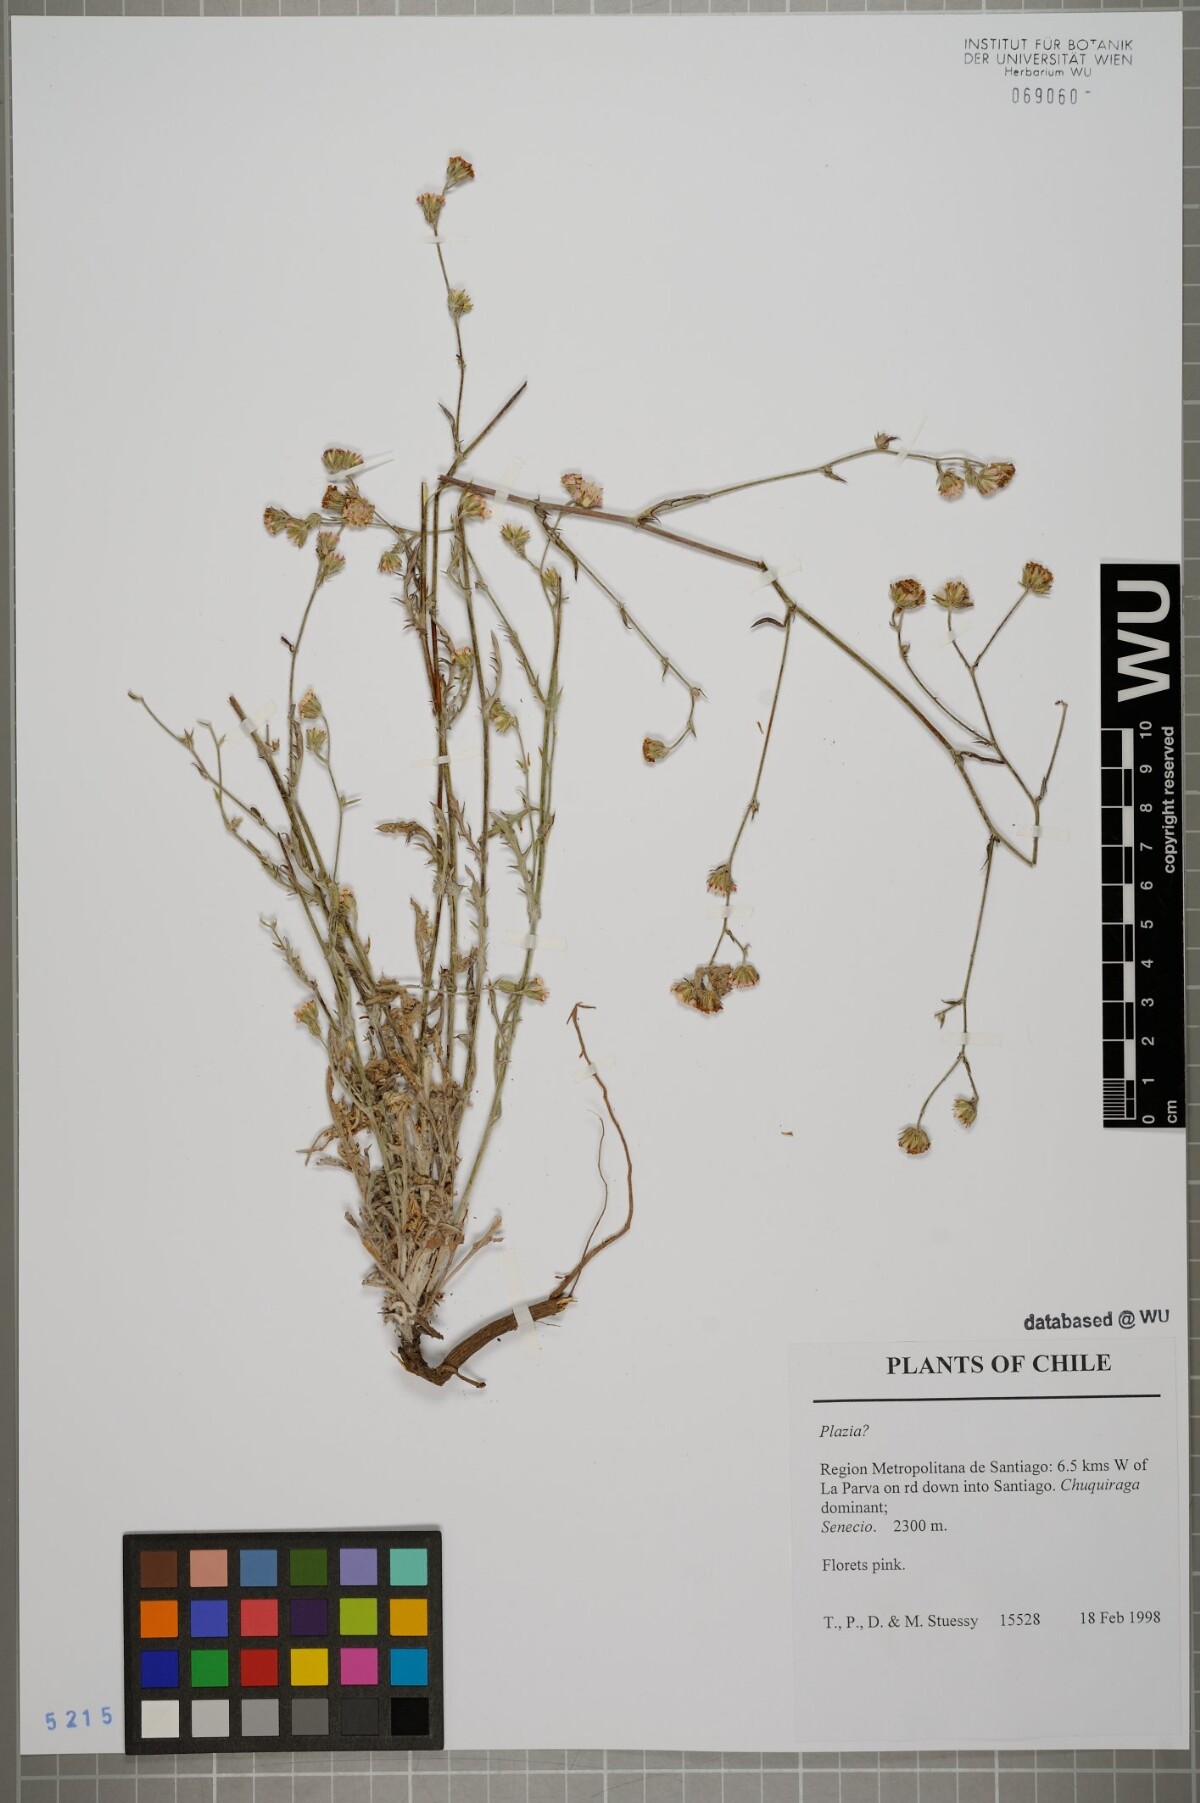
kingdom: Plantae
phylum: Tracheophyta
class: Magnoliopsida
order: Asterales
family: Asteraceae
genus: Plazia
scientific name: Plazia
